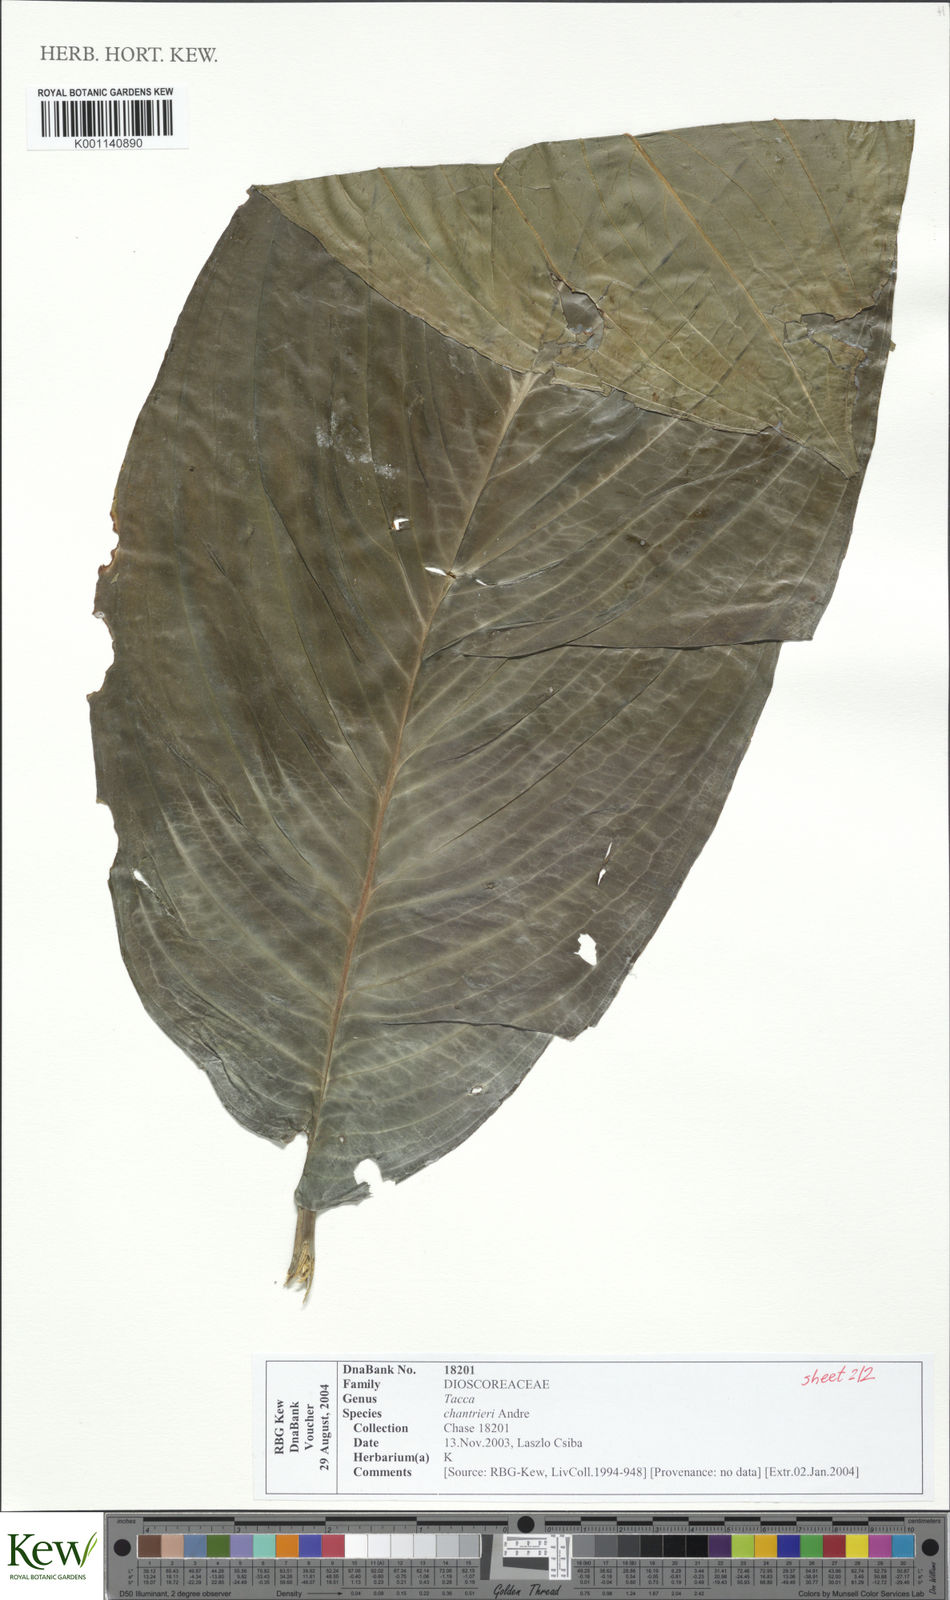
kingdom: Plantae
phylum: Tracheophyta
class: Liliopsida
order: Dioscoreales
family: Dioscoreaceae
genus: Tacca
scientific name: Tacca
